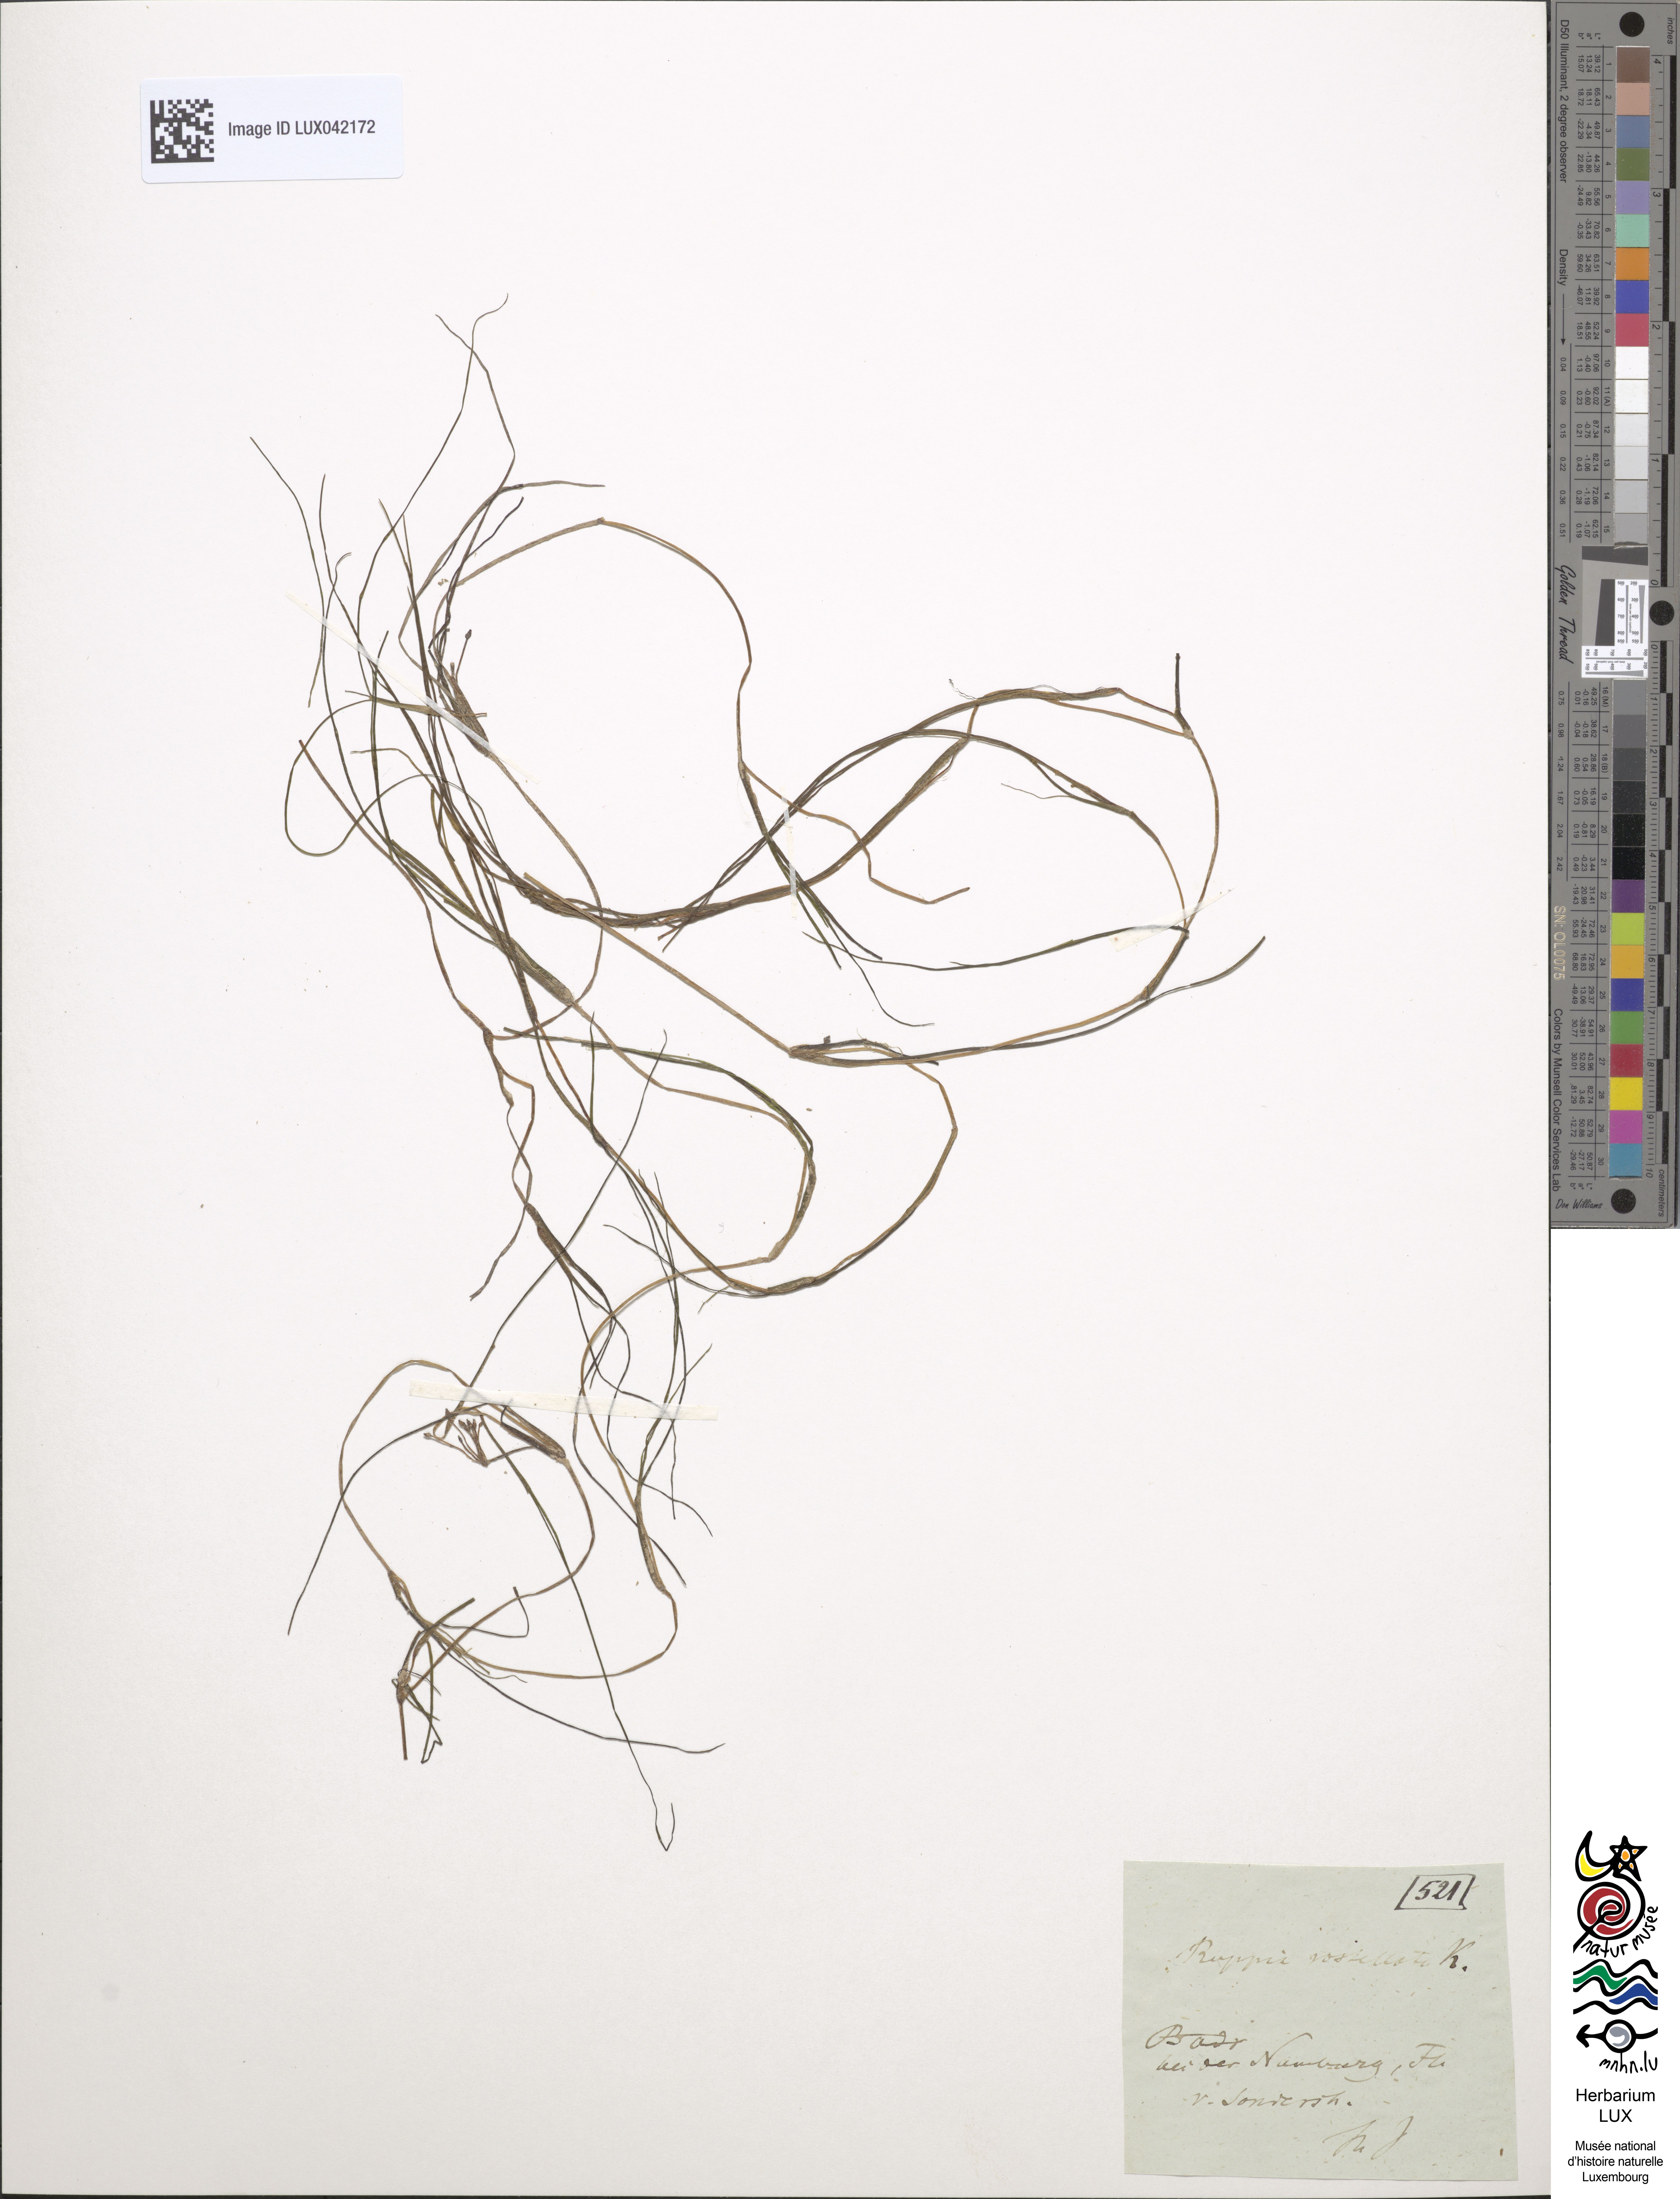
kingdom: Plantae
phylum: Tracheophyta
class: Liliopsida
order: Alismatales
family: Ruppiaceae
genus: Ruppia
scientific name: Ruppia maritima
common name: Beaked tasselweed
